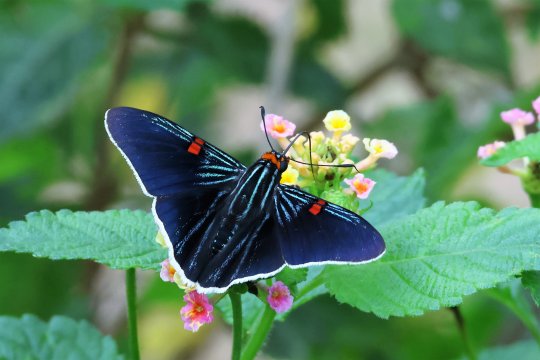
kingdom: Animalia
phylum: Arthropoda
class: Insecta
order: Lepidoptera
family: Hesperiidae
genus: Phocides
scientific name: Phocides polybius
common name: Guava Skipper
